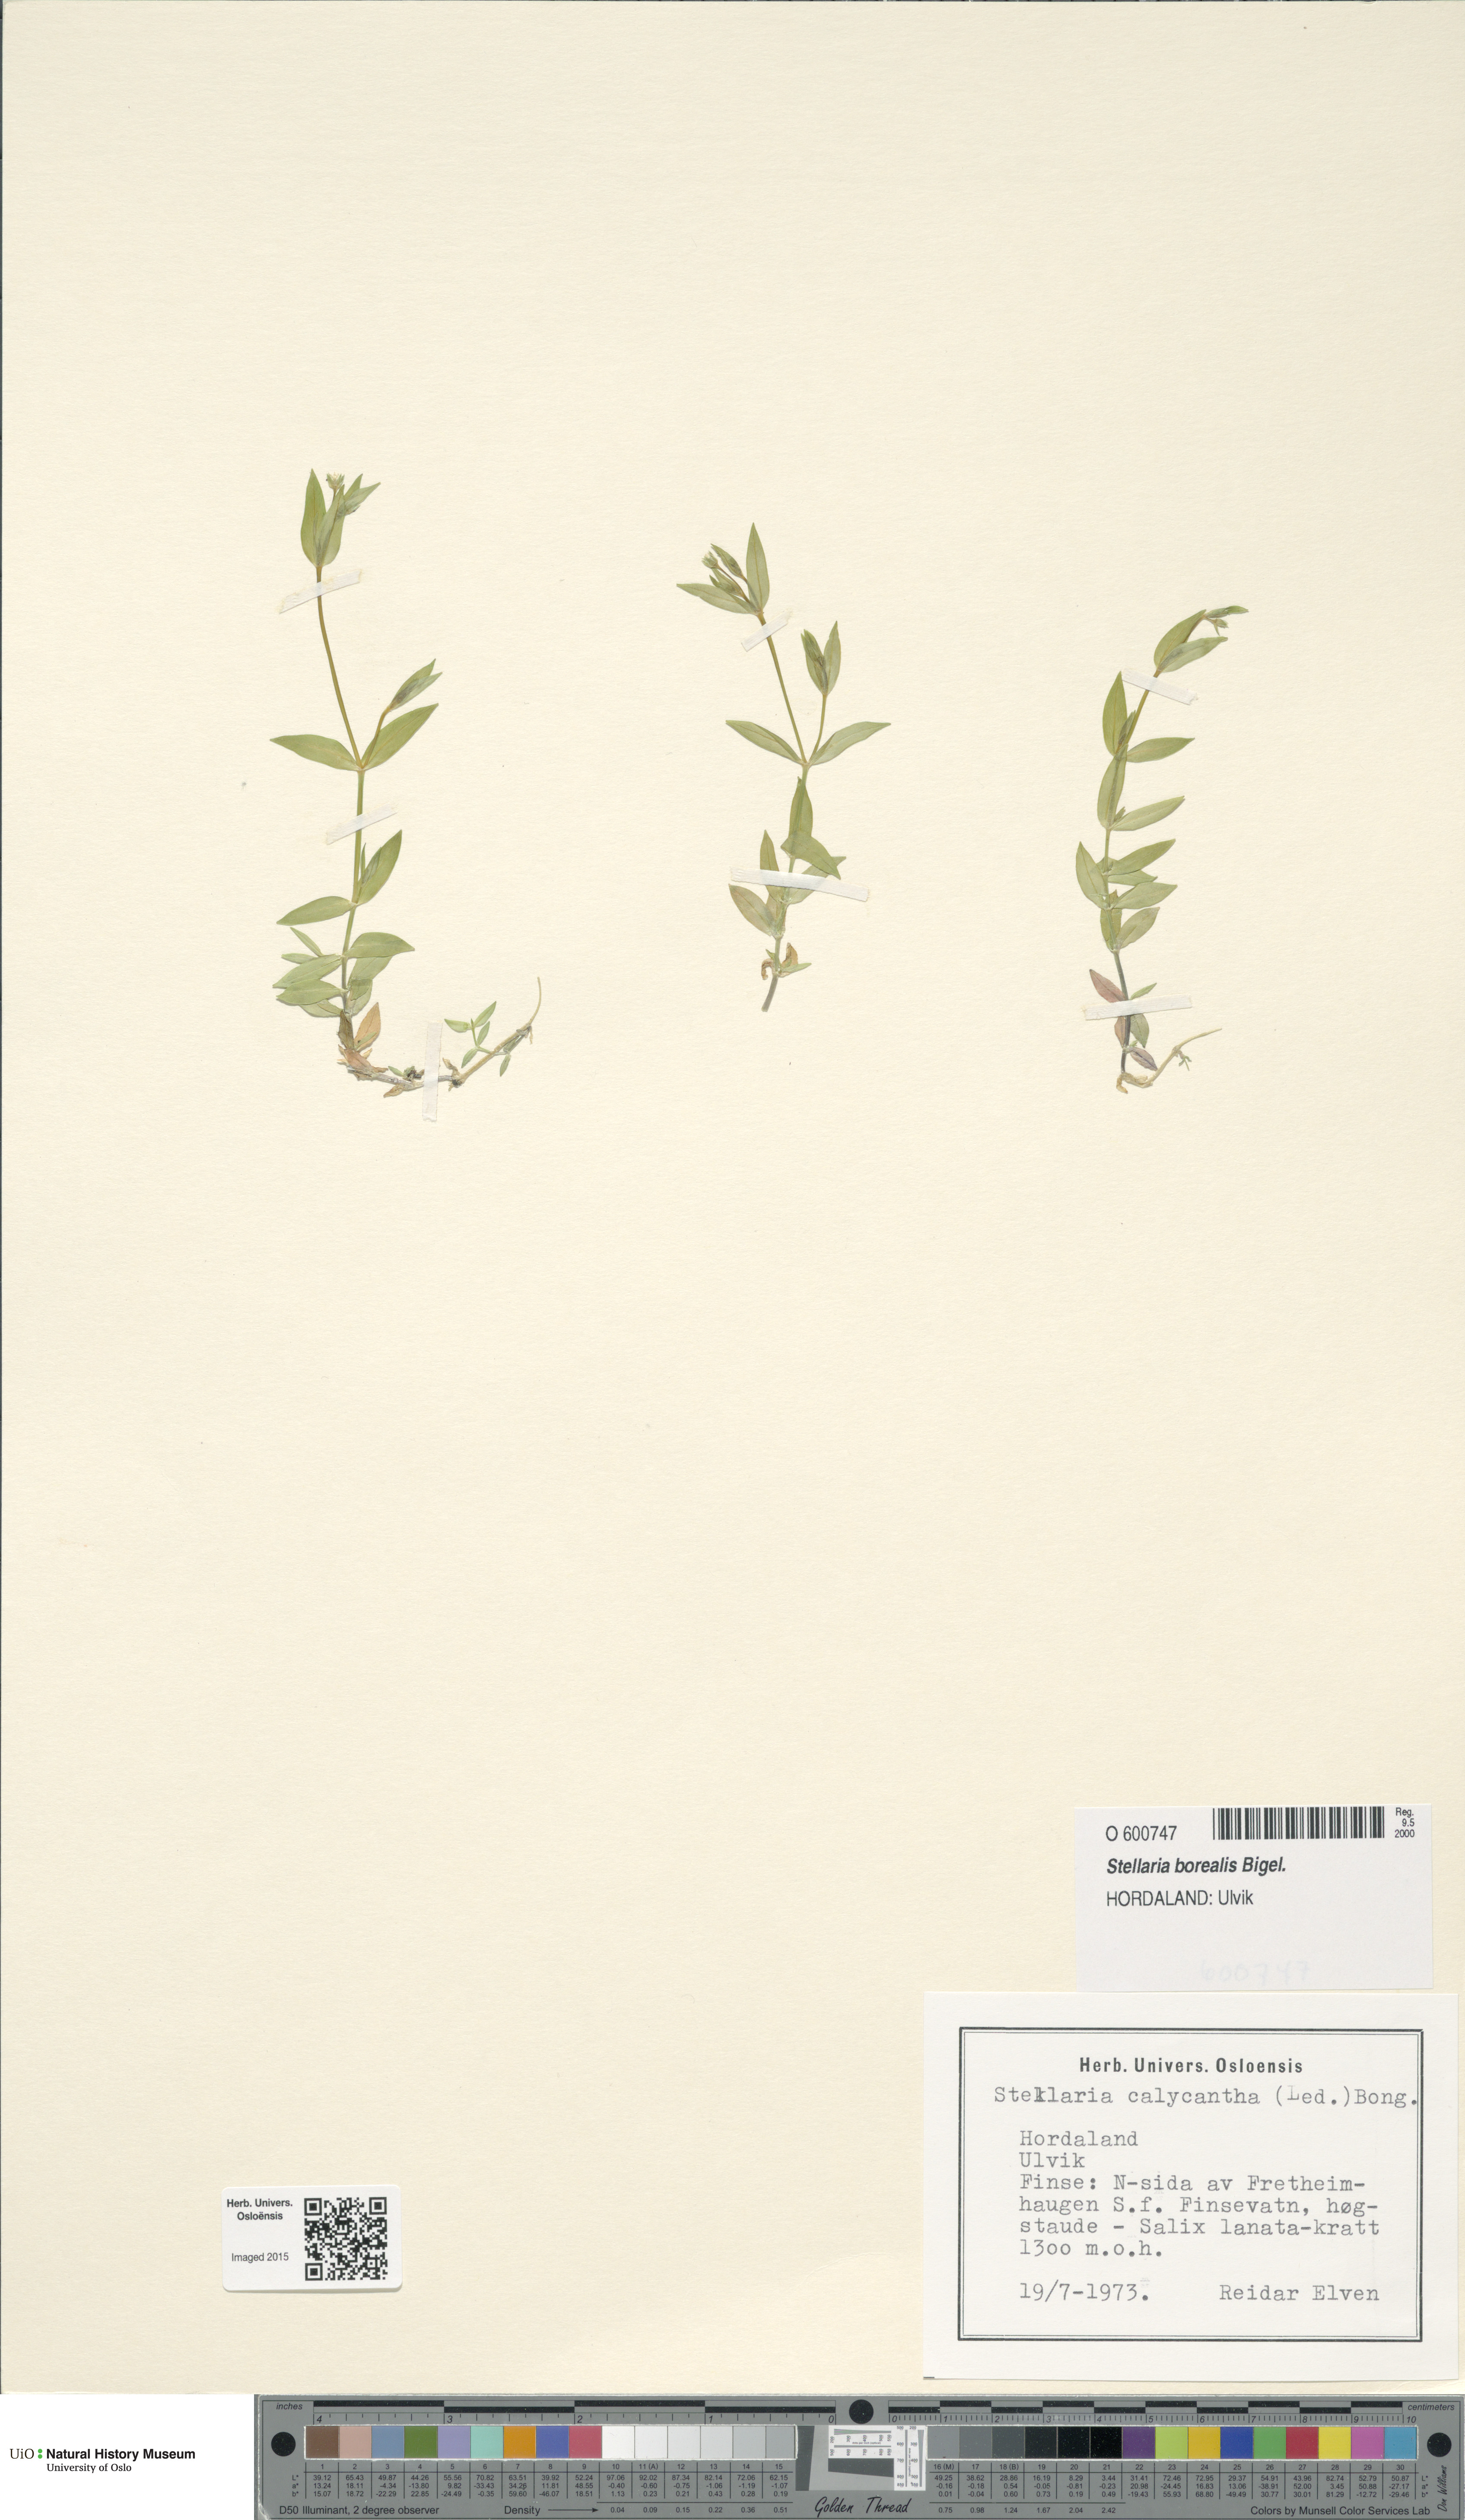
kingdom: Plantae
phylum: Tracheophyta
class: Magnoliopsida
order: Caryophyllales
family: Caryophyllaceae
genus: Stellaria
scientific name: Stellaria borealis
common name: Boreal starwort
